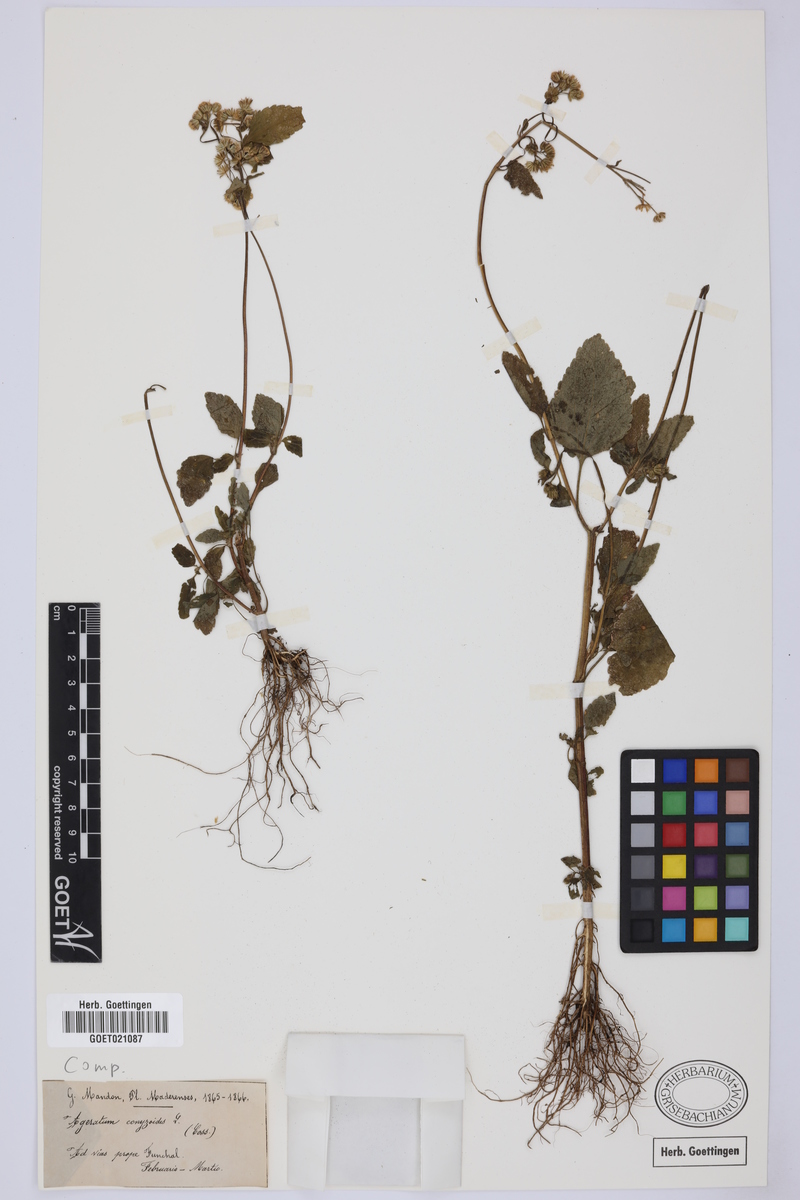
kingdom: Plantae
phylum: Tracheophyta
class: Magnoliopsida
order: Asterales
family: Asteraceae
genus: Ageratum
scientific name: Ageratum conyzoides
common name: Tropical whiteweed
